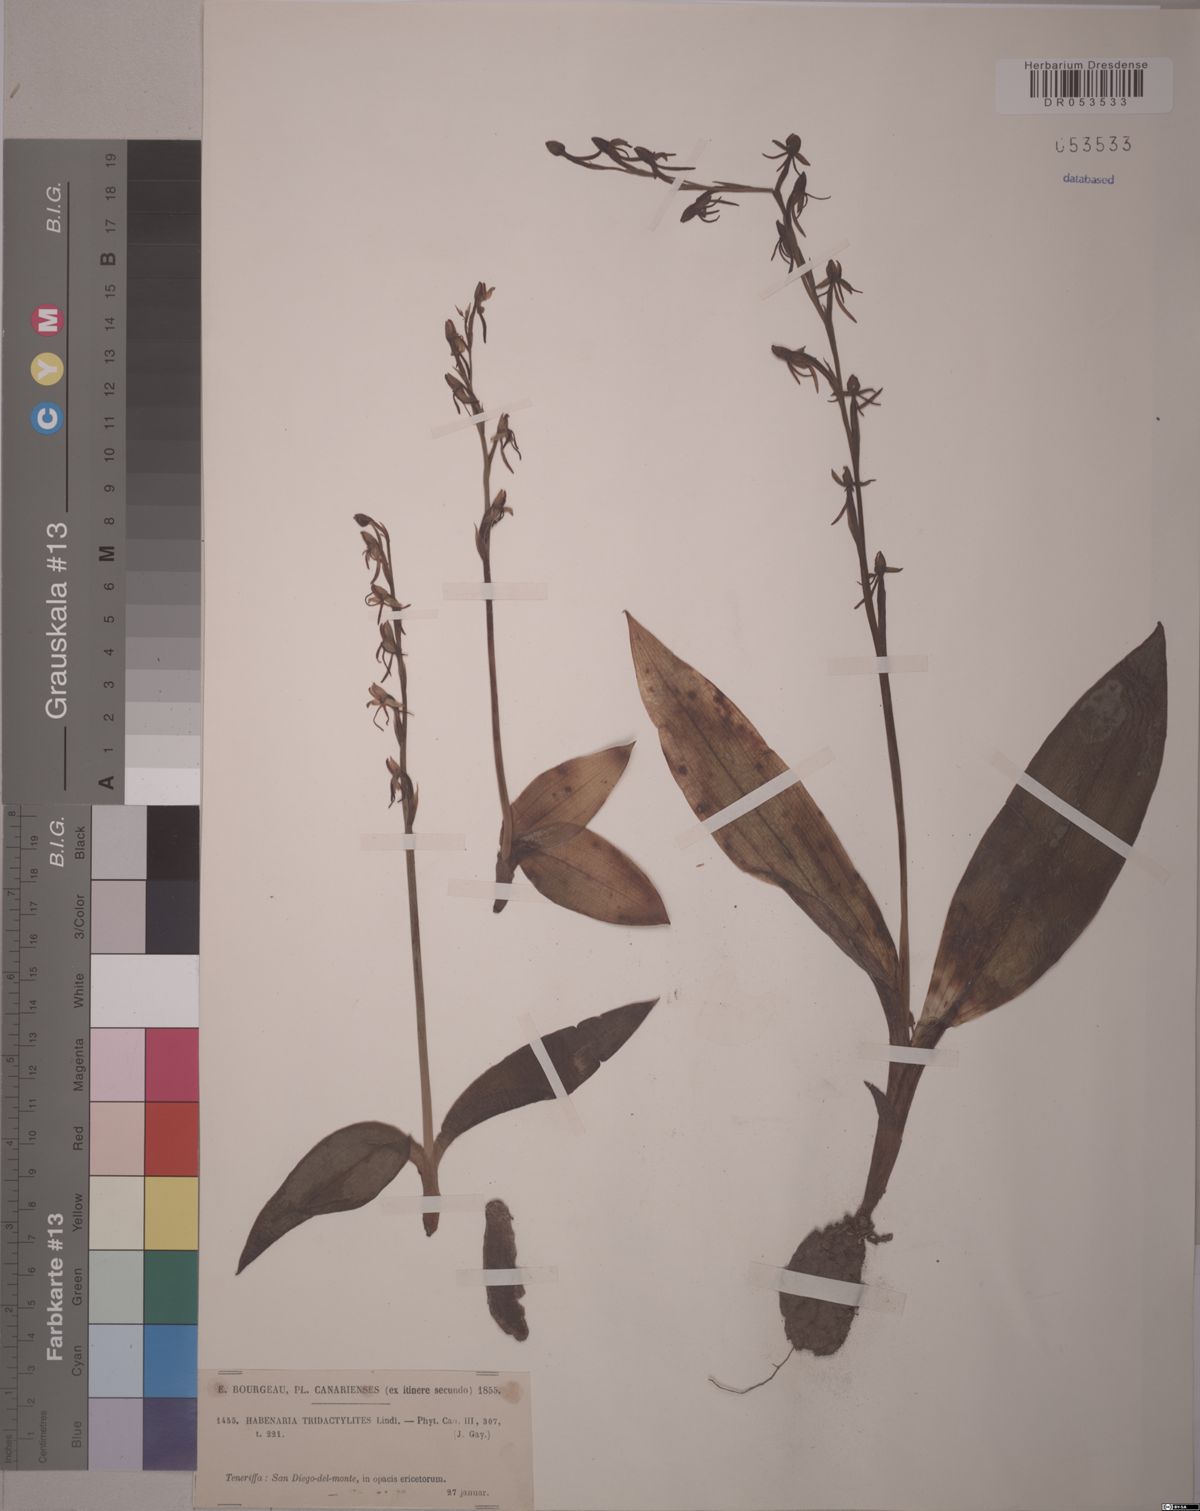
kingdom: Plantae
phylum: Tracheophyta
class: Liliopsida
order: Asparagales
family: Orchidaceae
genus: Habenaria
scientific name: Habenaria tridactylites
